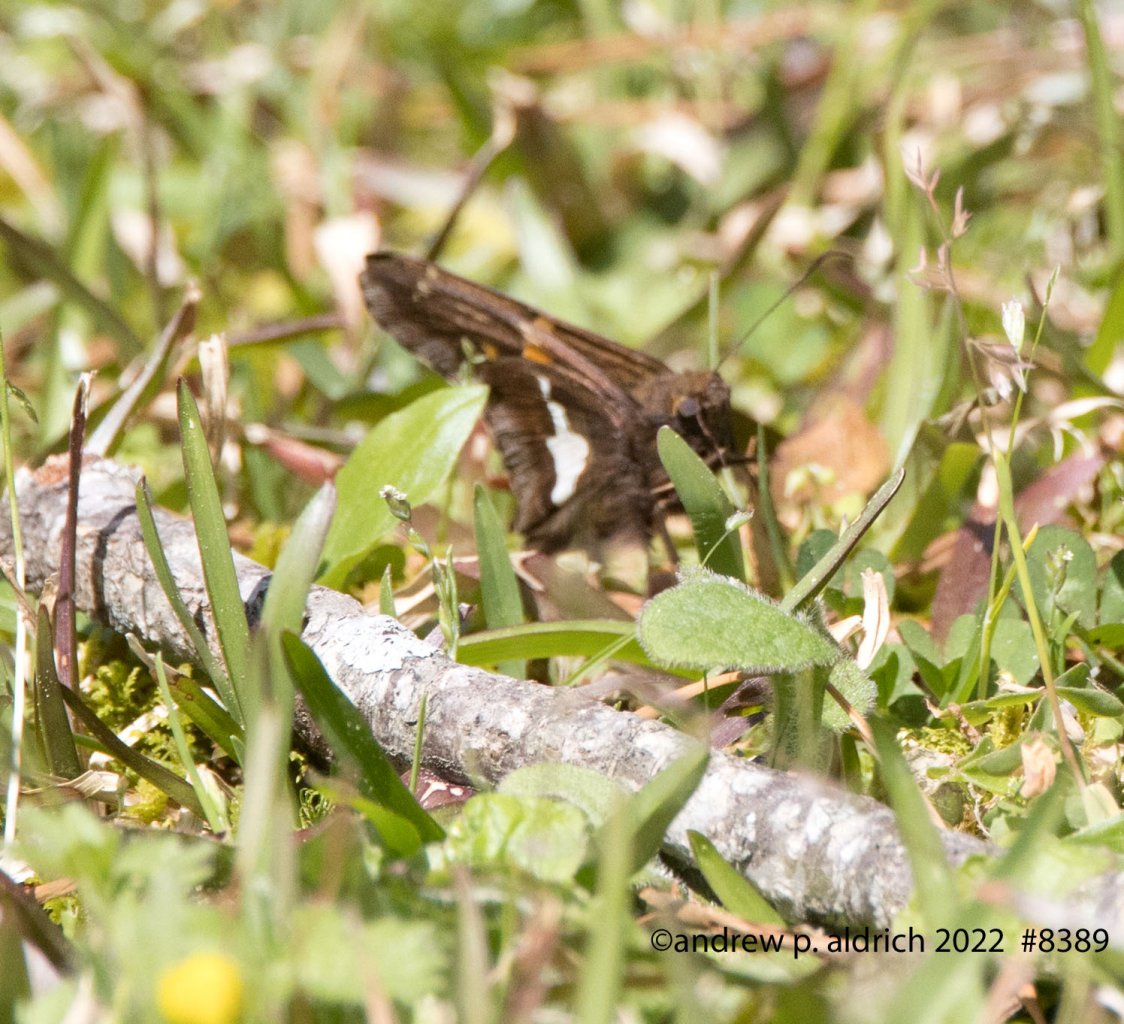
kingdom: Animalia
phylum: Arthropoda
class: Insecta
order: Lepidoptera
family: Hesperiidae
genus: Epargyreus
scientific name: Epargyreus clarus
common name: Silver-spotted Skipper
